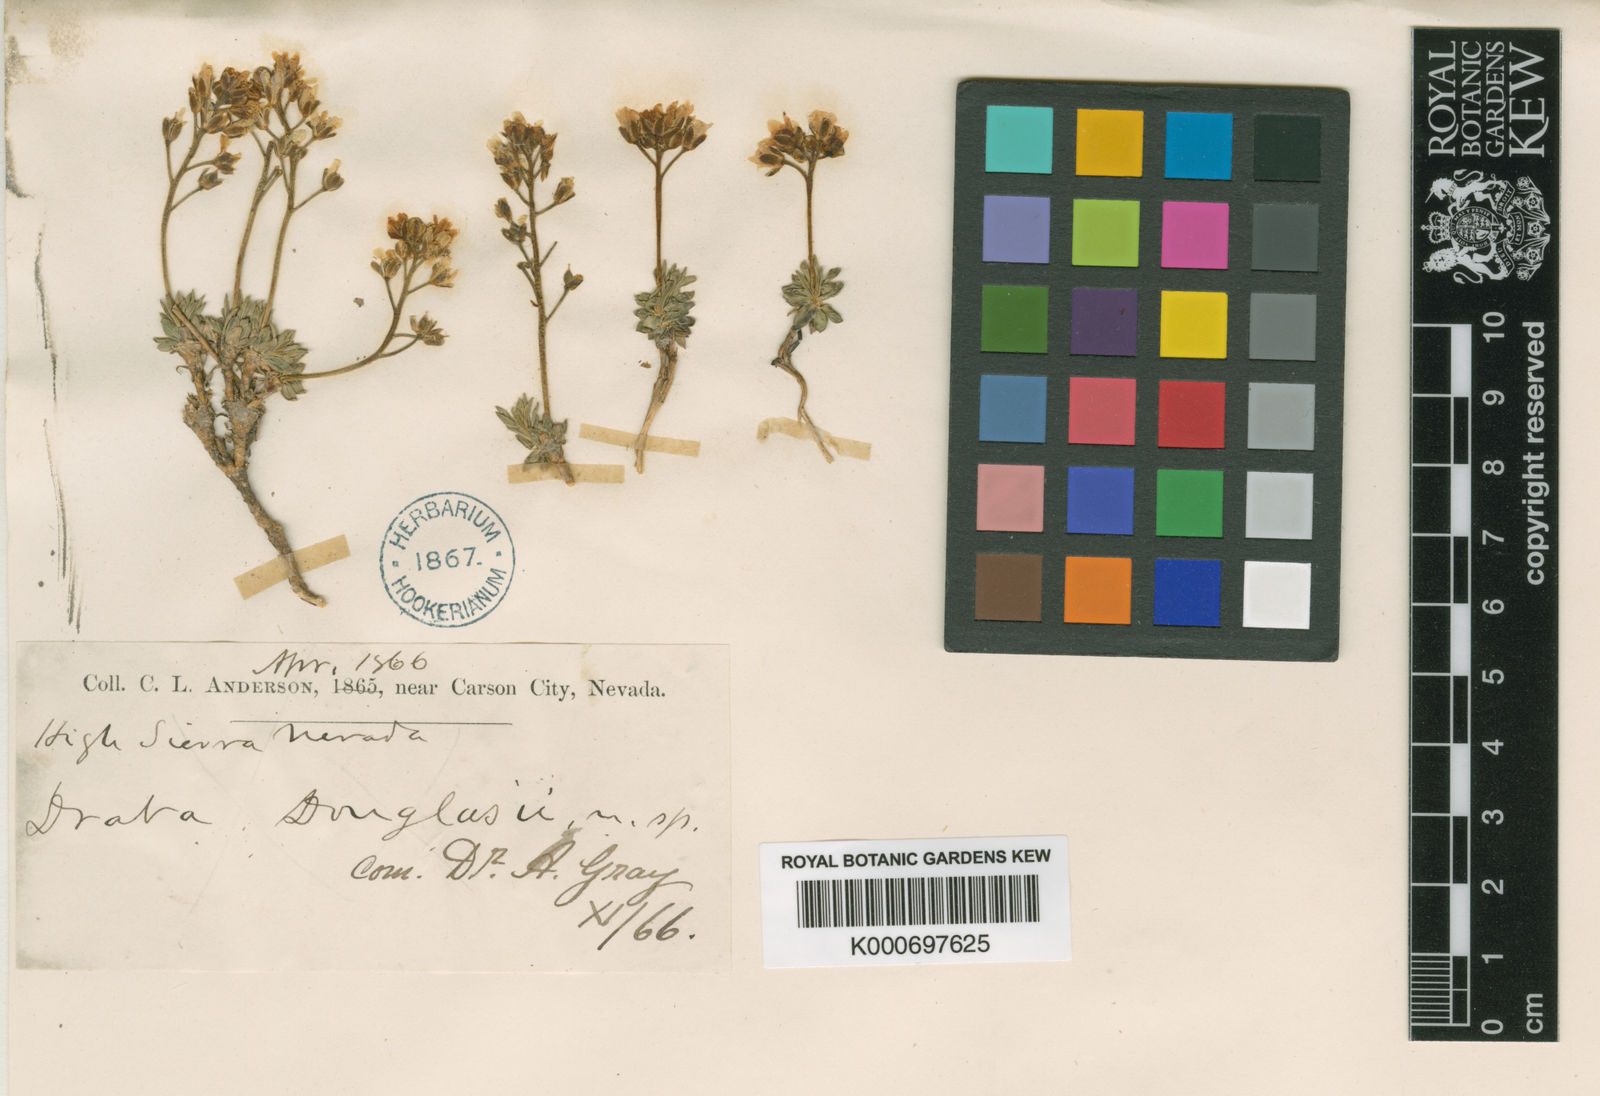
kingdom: Plantae
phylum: Tracheophyta
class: Magnoliopsida
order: Brassicales
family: Brassicaceae
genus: Cusickiella
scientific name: Cusickiella douglasii
